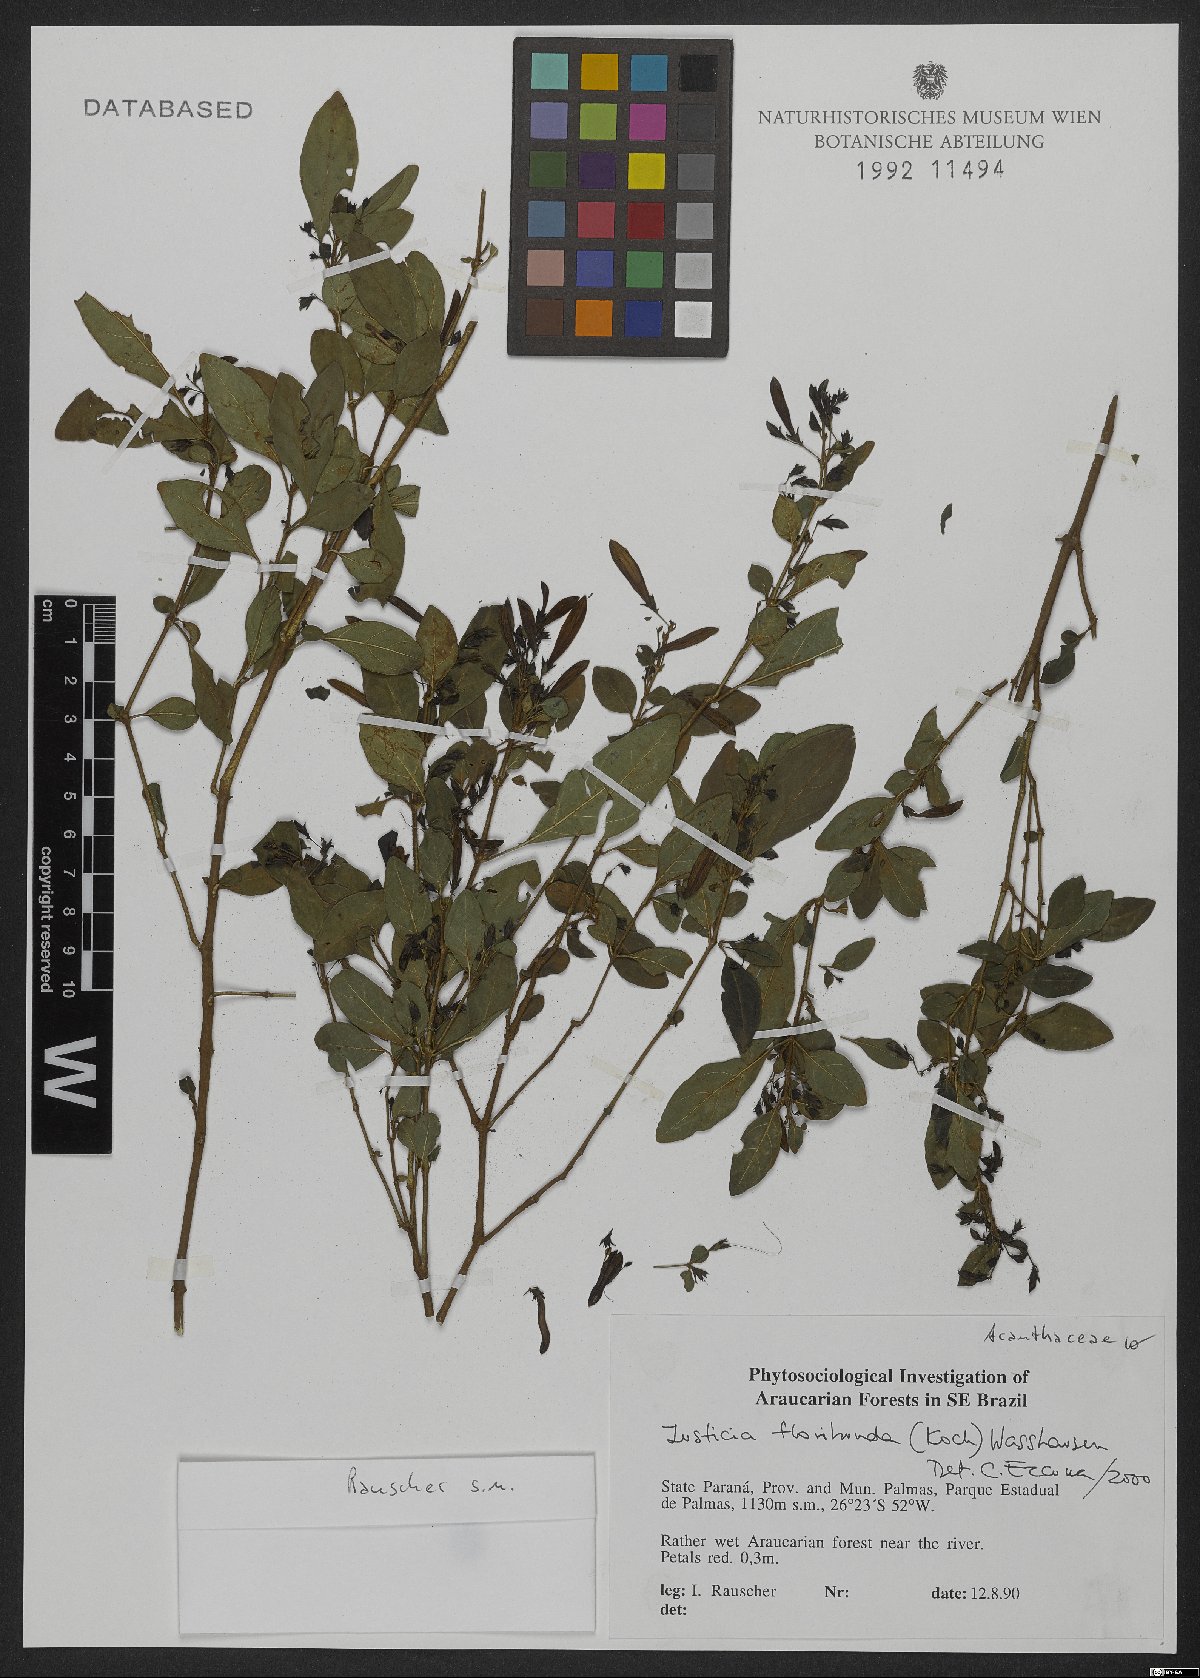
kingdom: Plantae
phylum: Tracheophyta
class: Magnoliopsida
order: Lamiales
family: Acanthaceae
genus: Justicia
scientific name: Justicia floribunda
